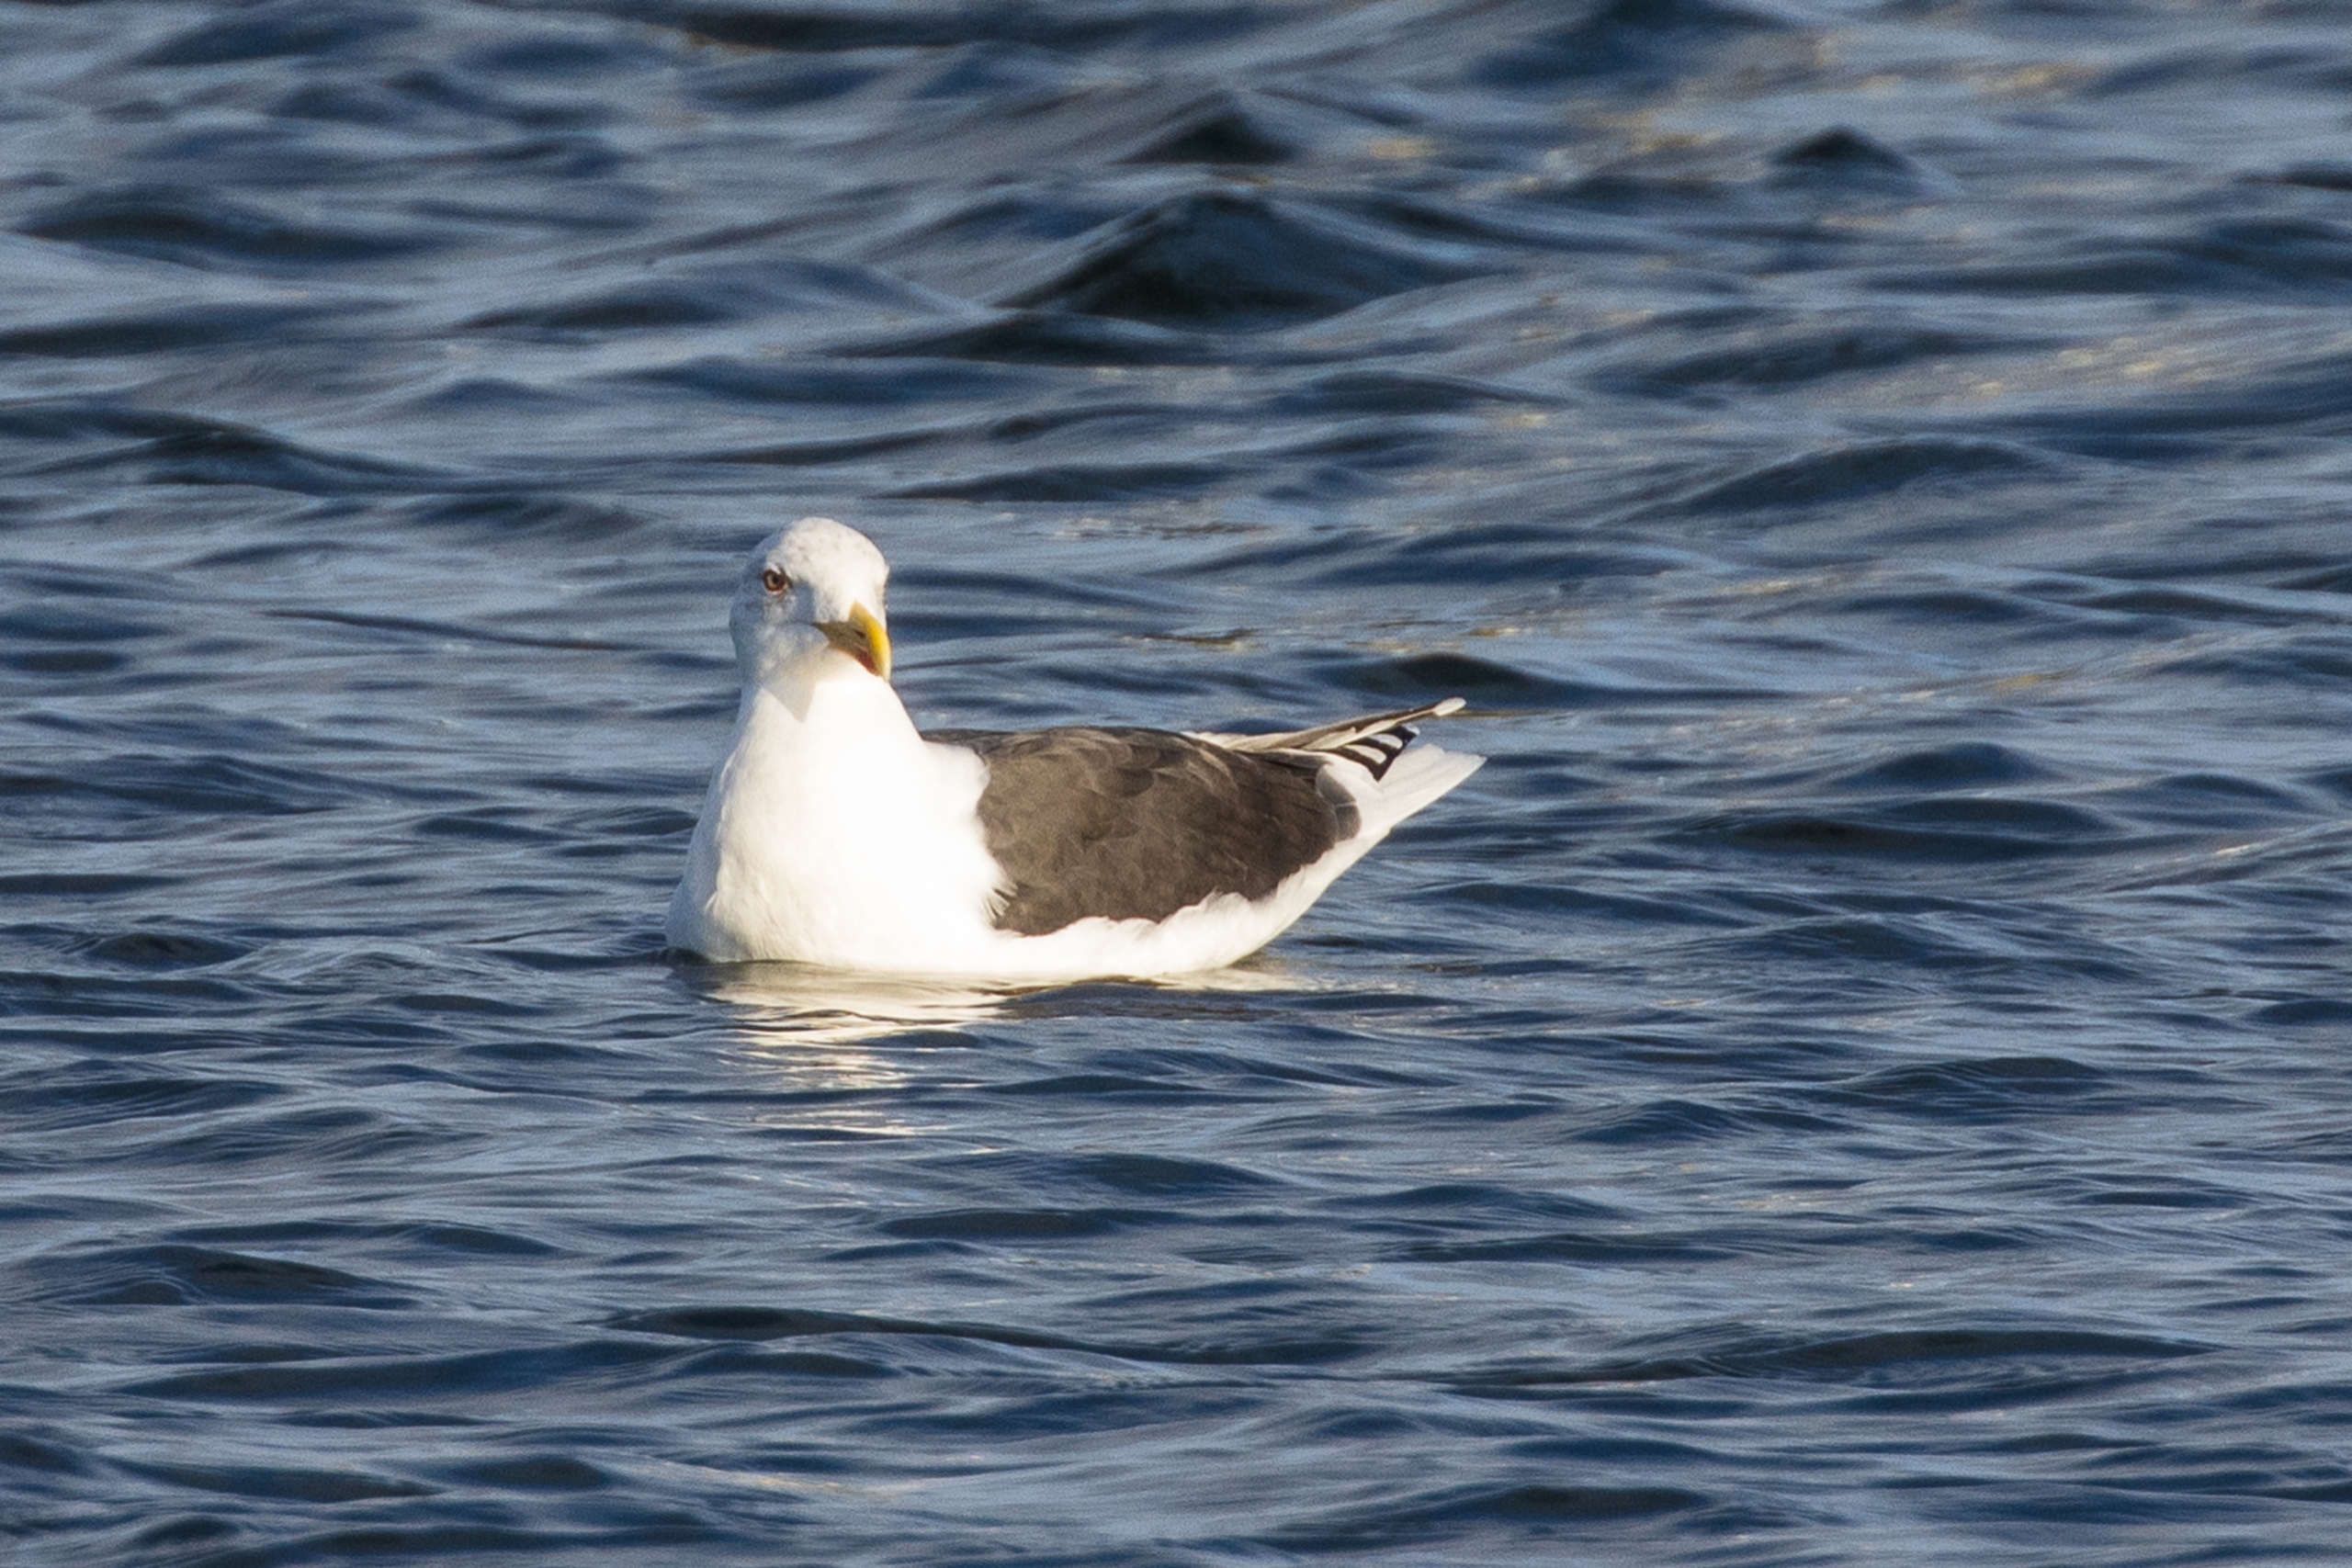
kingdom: Animalia
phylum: Chordata
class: Aves
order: Charadriiformes
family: Laridae
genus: Larus
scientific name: Larus marinus
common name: Svartbag
